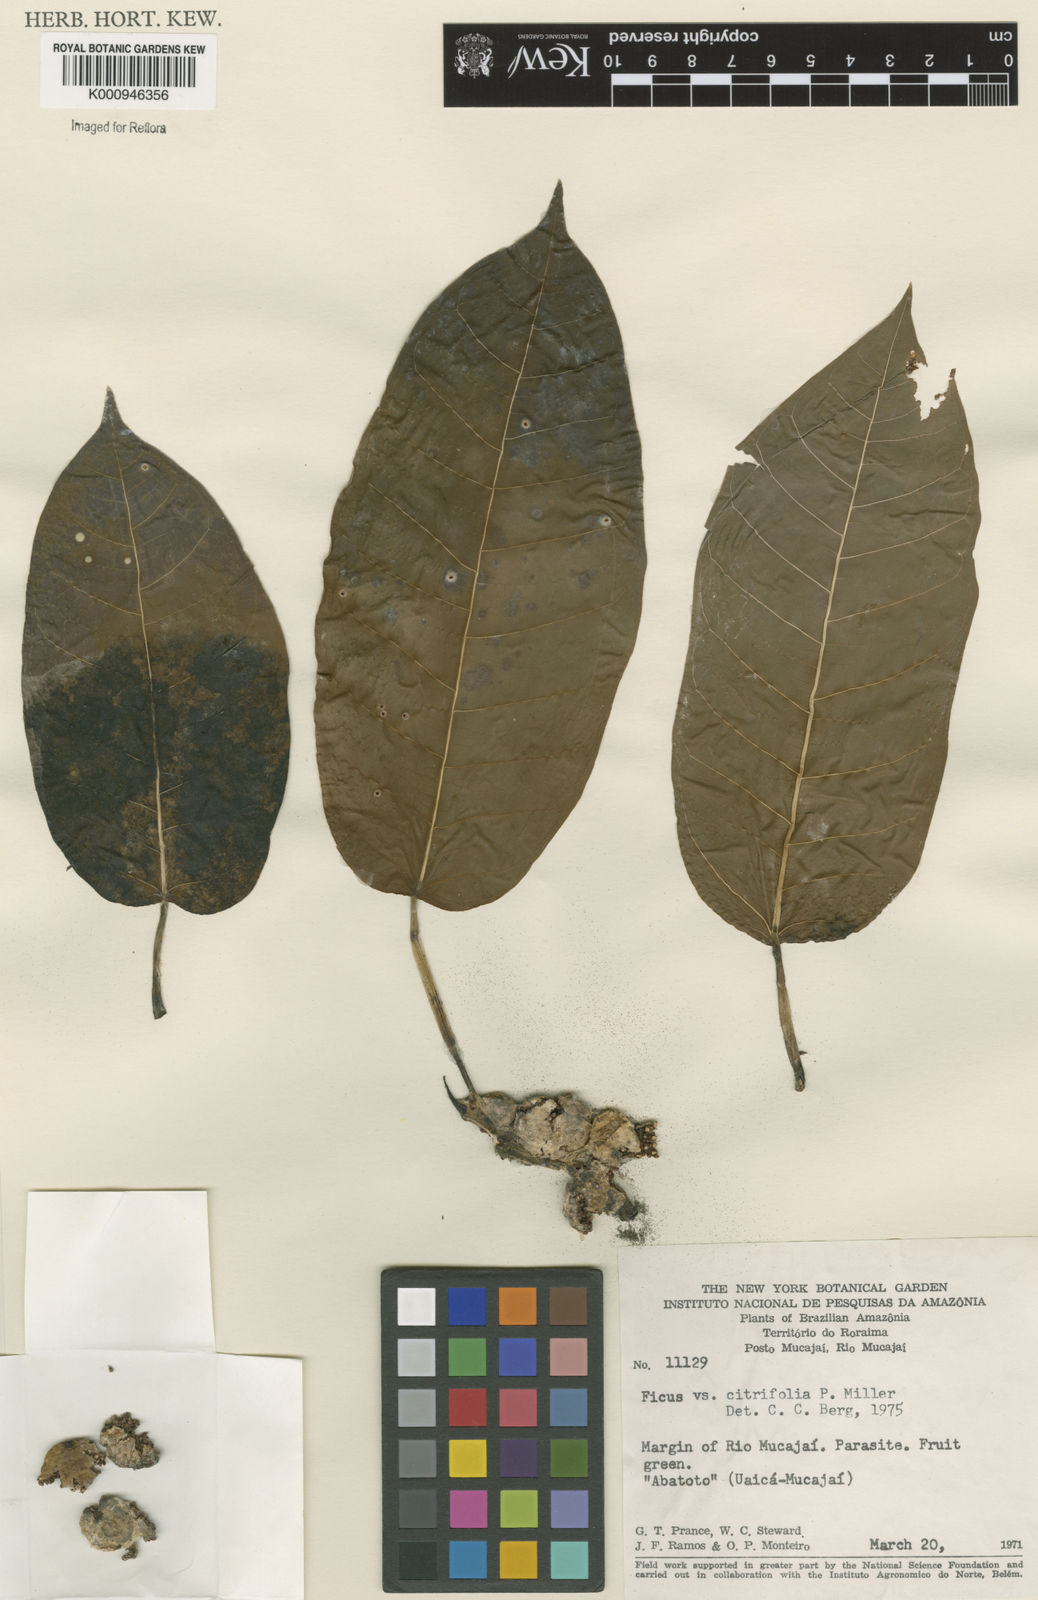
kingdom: Plantae
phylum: Tracheophyta
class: Magnoliopsida
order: Rosales
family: Moraceae
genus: Ficus
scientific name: Ficus citrifolia
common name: Strangler fig
